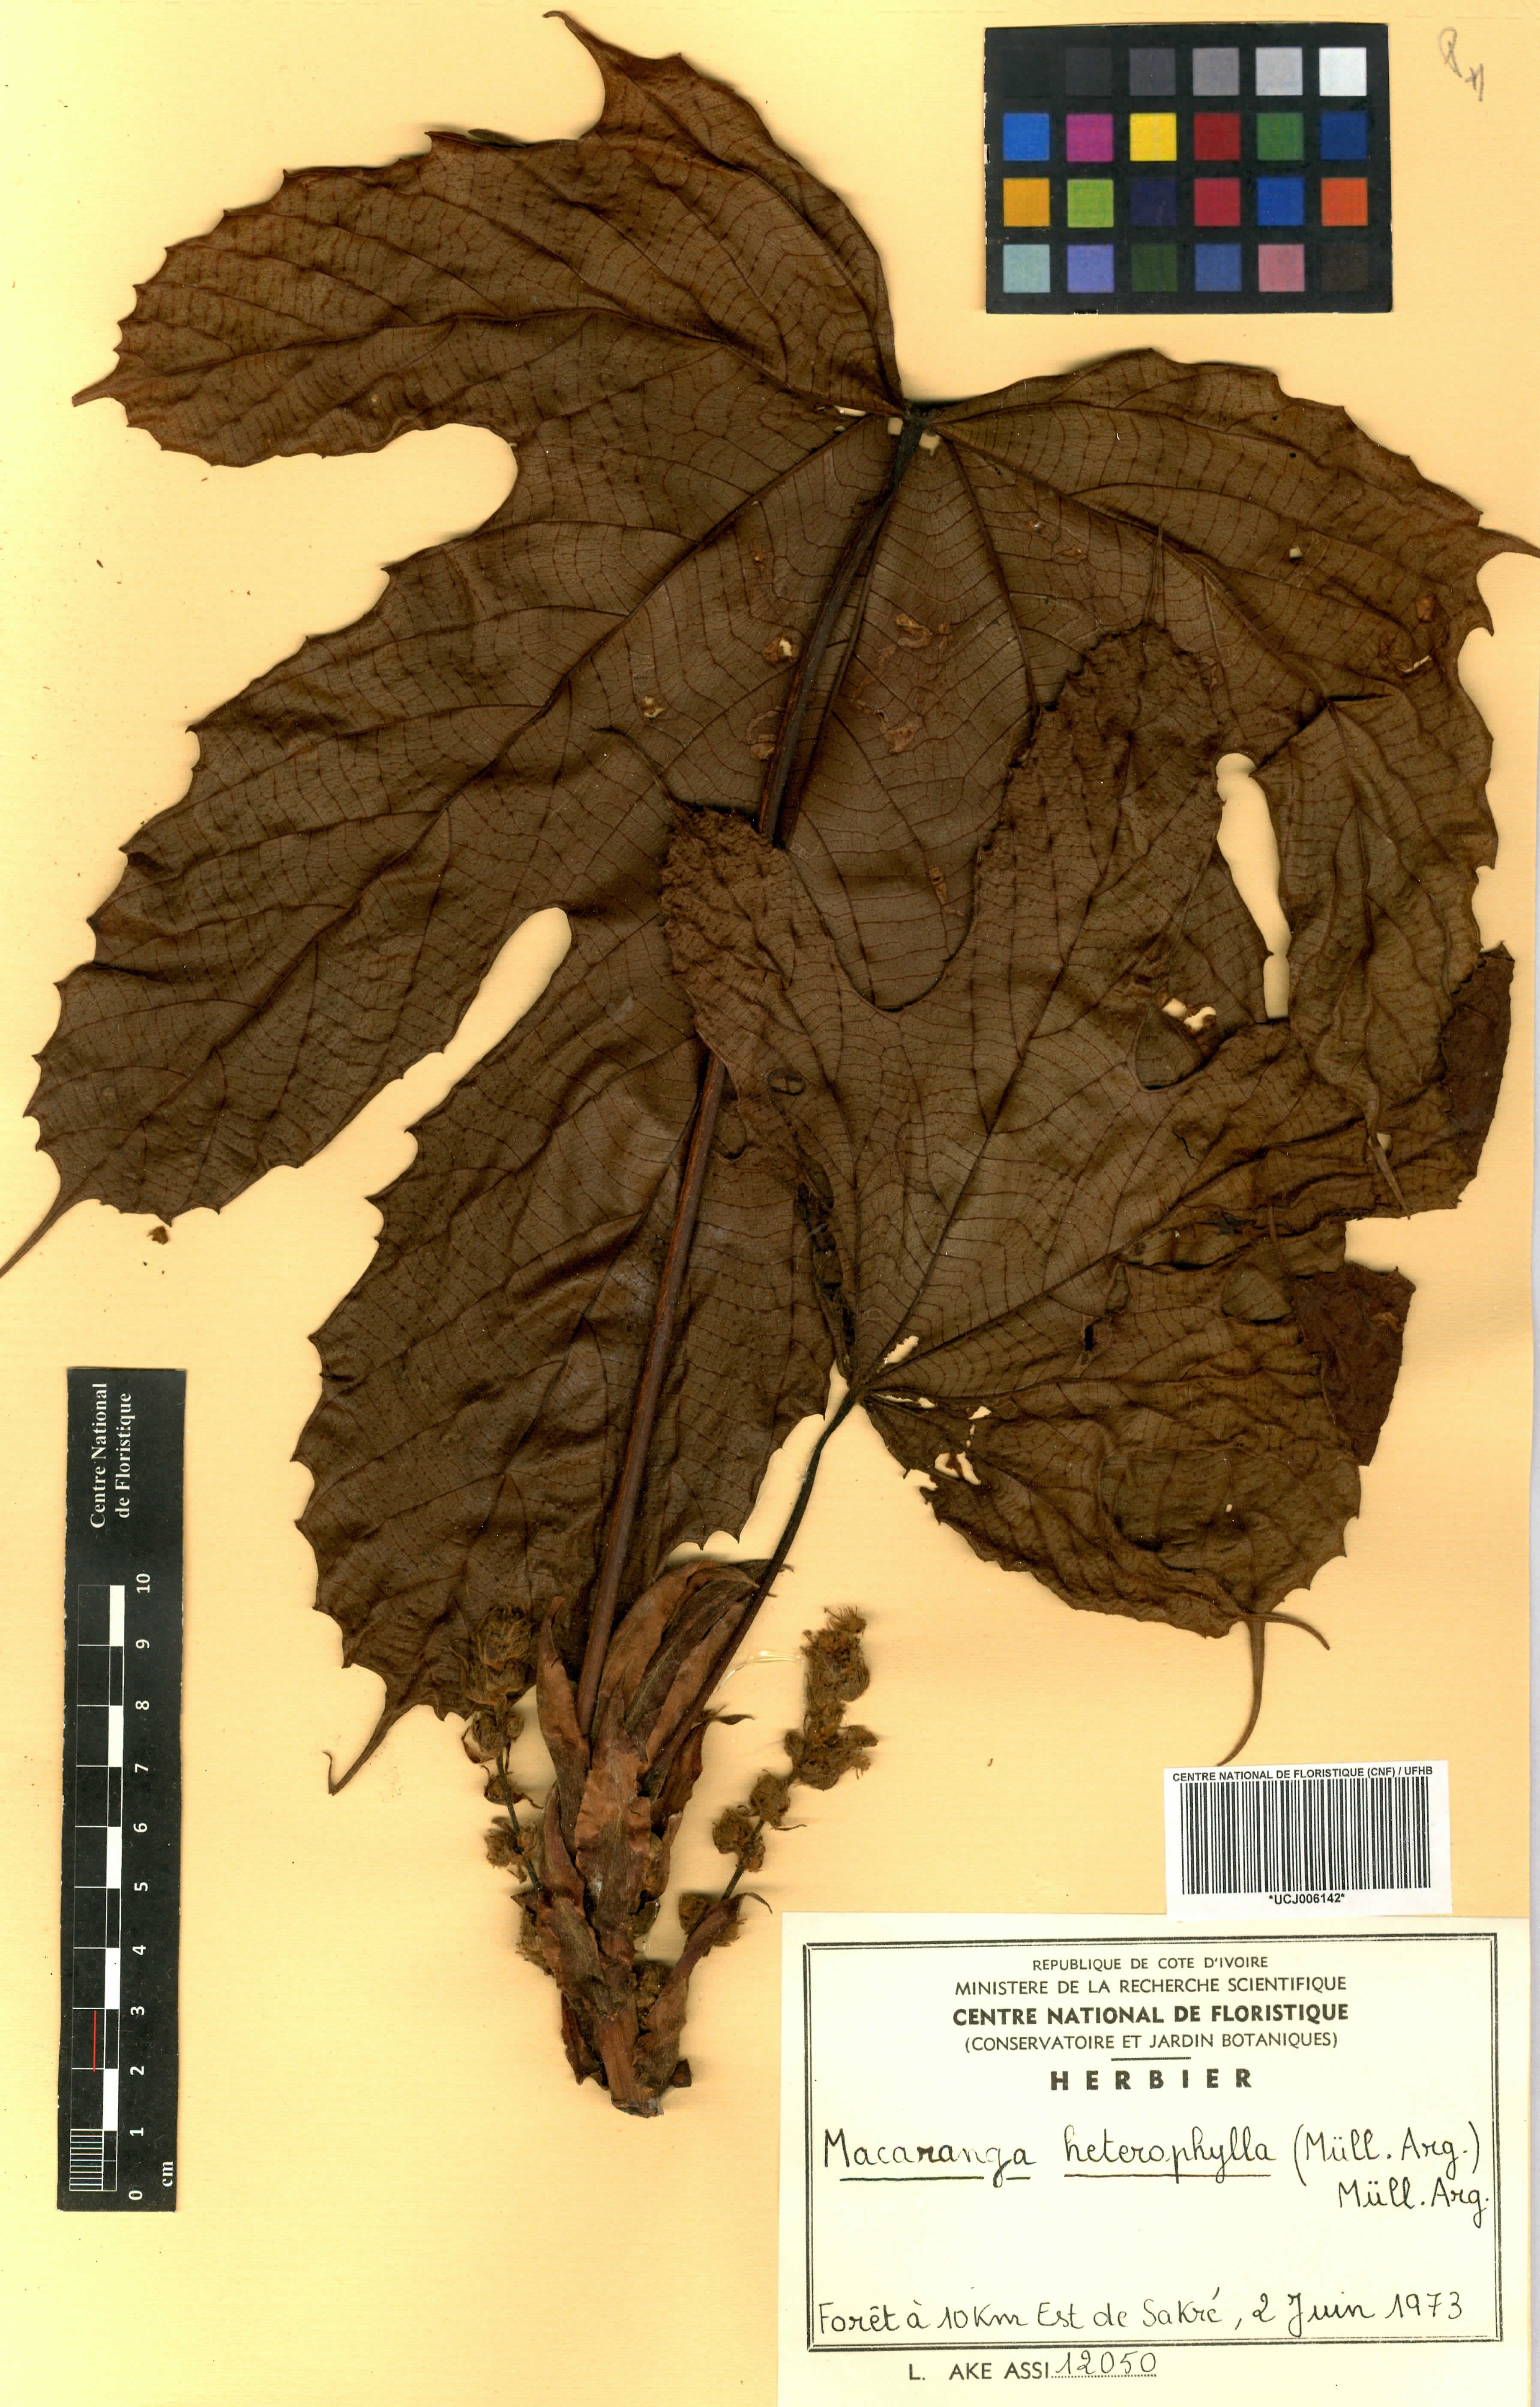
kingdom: Plantae
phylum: Tracheophyta
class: Magnoliopsida
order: Malpighiales
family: Euphorbiaceae
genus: Macaranga
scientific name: Macaranga heterophylla
